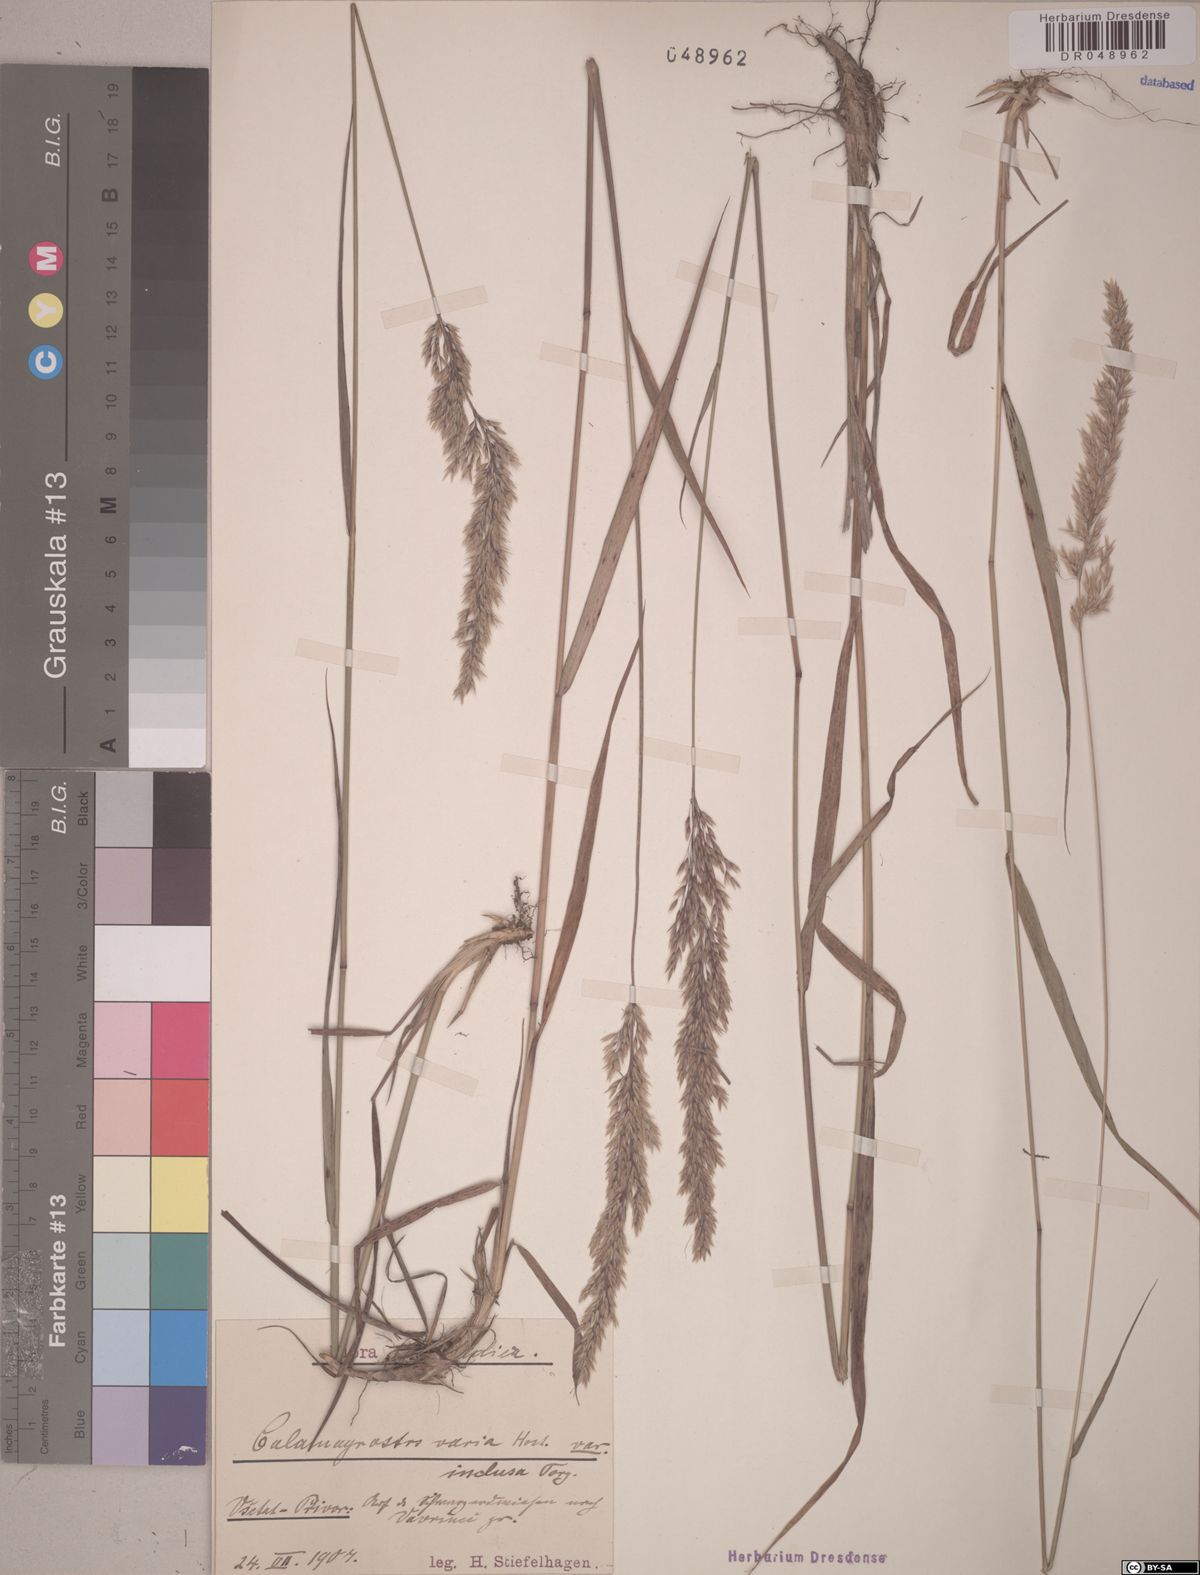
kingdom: Plantae
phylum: Tracheophyta
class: Liliopsida
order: Poales
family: Poaceae
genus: Calamagrostis
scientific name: Calamagrostis varia
